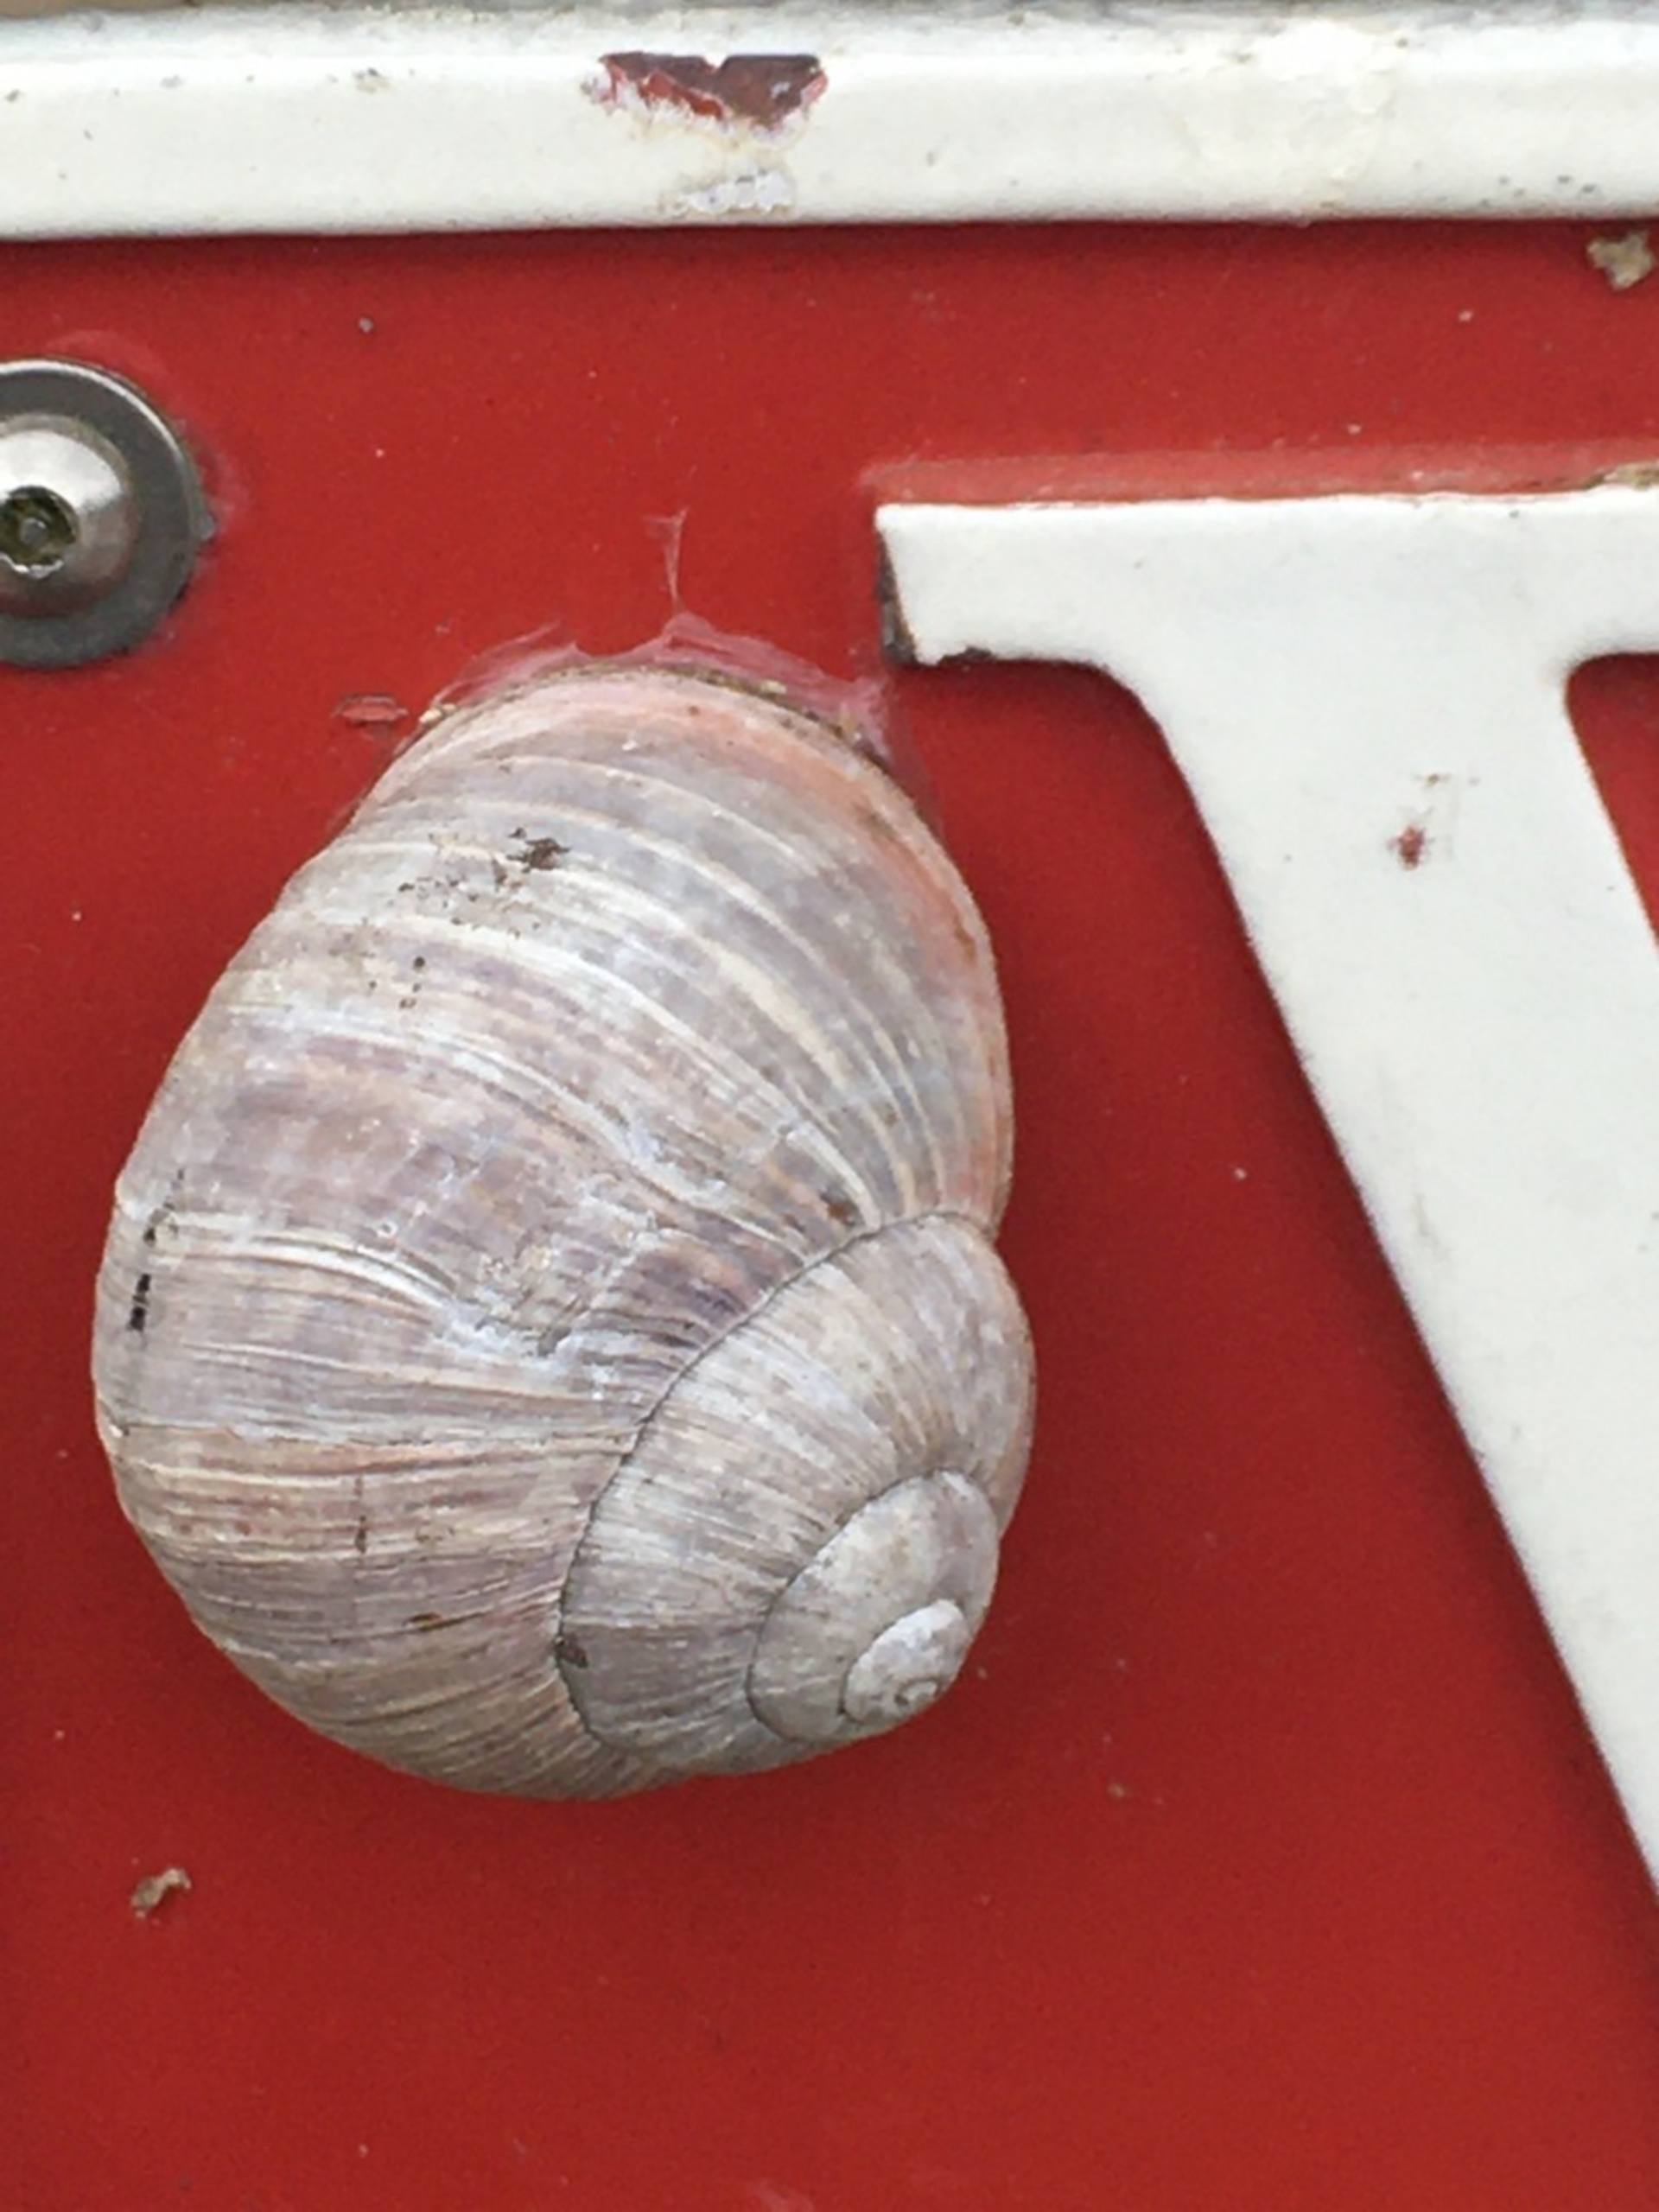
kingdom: Animalia
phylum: Mollusca
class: Gastropoda
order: Stylommatophora
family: Helicidae
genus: Helix
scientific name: Helix pomatia
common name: Vinbjergsnegl
